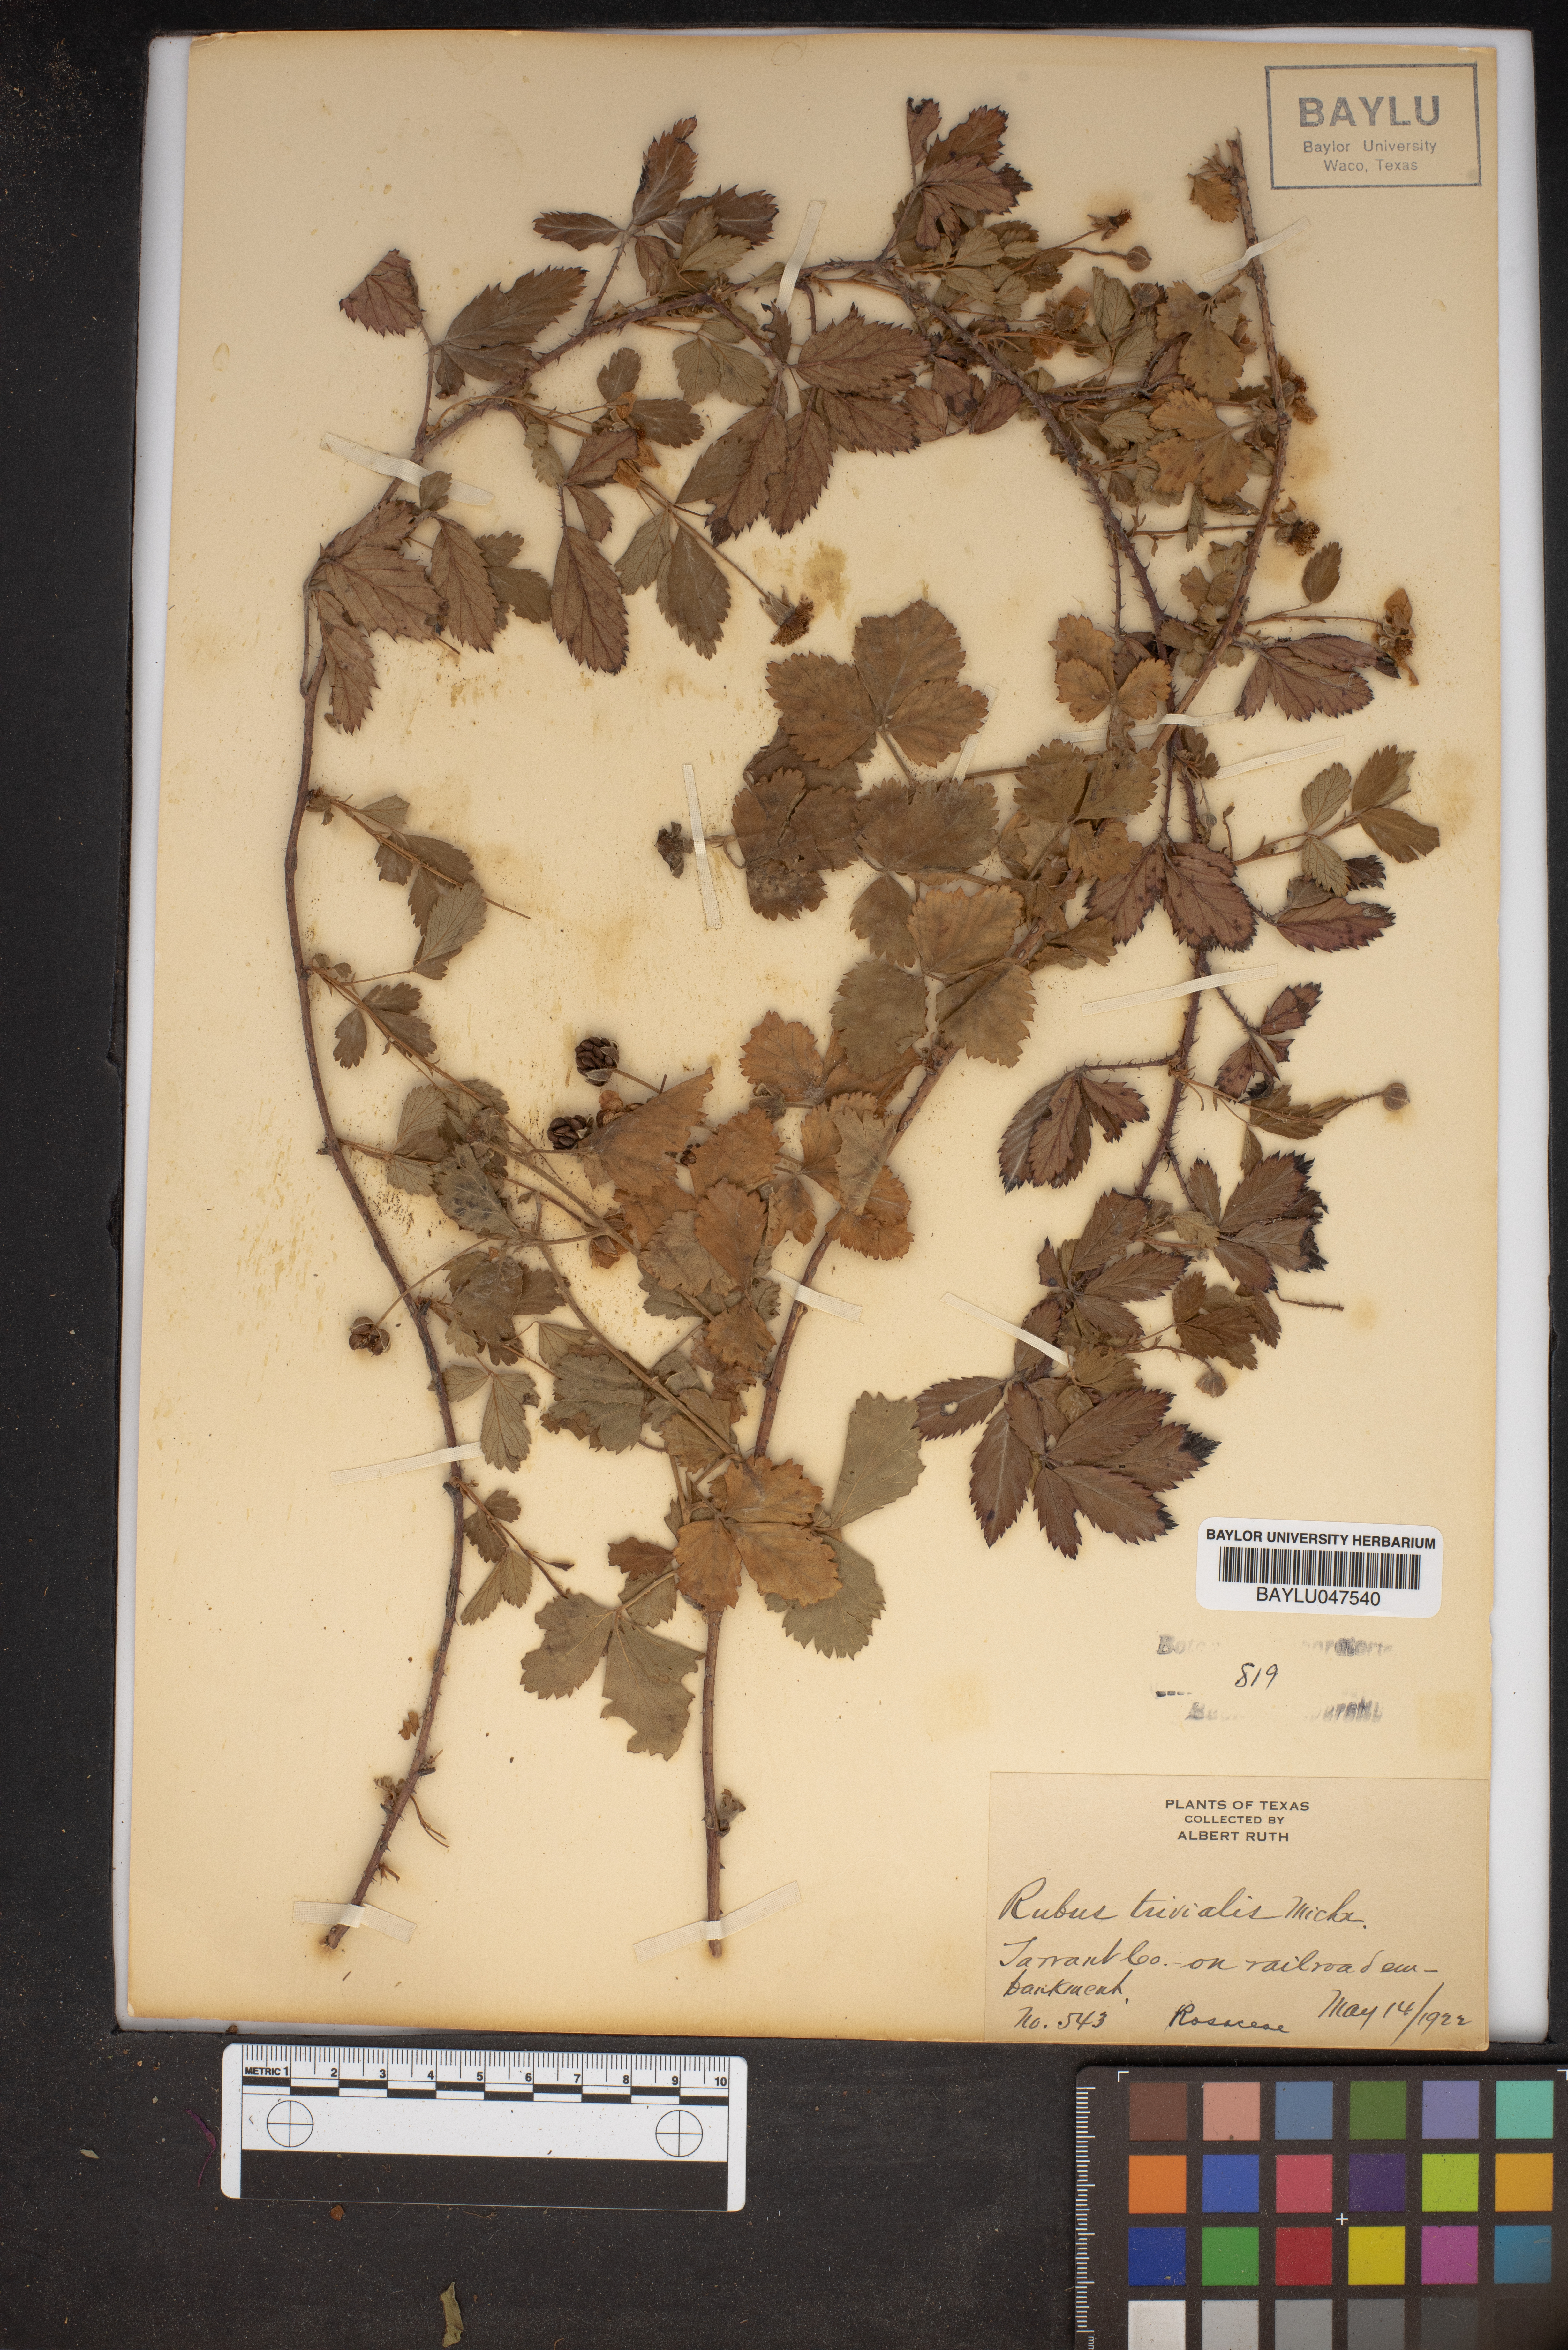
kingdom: Plantae
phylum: Tracheophyta
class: Magnoliopsida
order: Rosales
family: Rosaceae
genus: Rubus
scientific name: Rubus trivialis
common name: Southern dewberry
